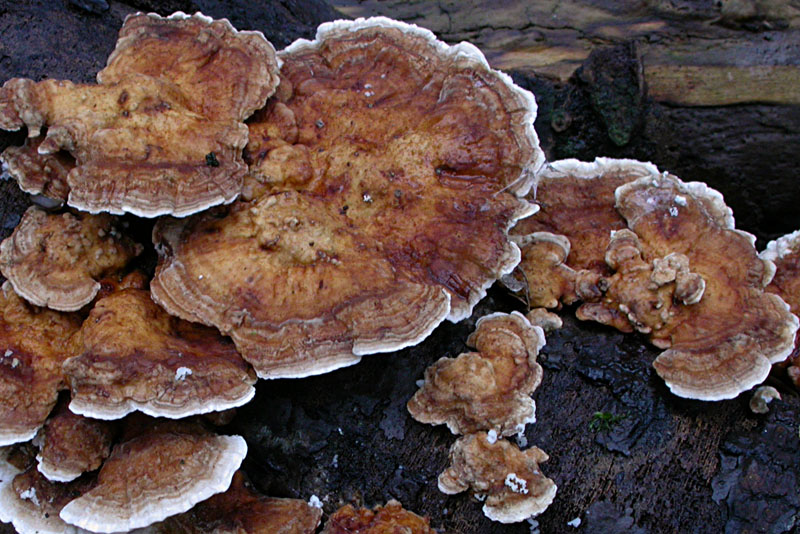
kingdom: Fungi
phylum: Basidiomycota
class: Agaricomycetes
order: Polyporales
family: Polyporaceae
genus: Trametes
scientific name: Trametes ochracea
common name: bæltet læderporesvamp
